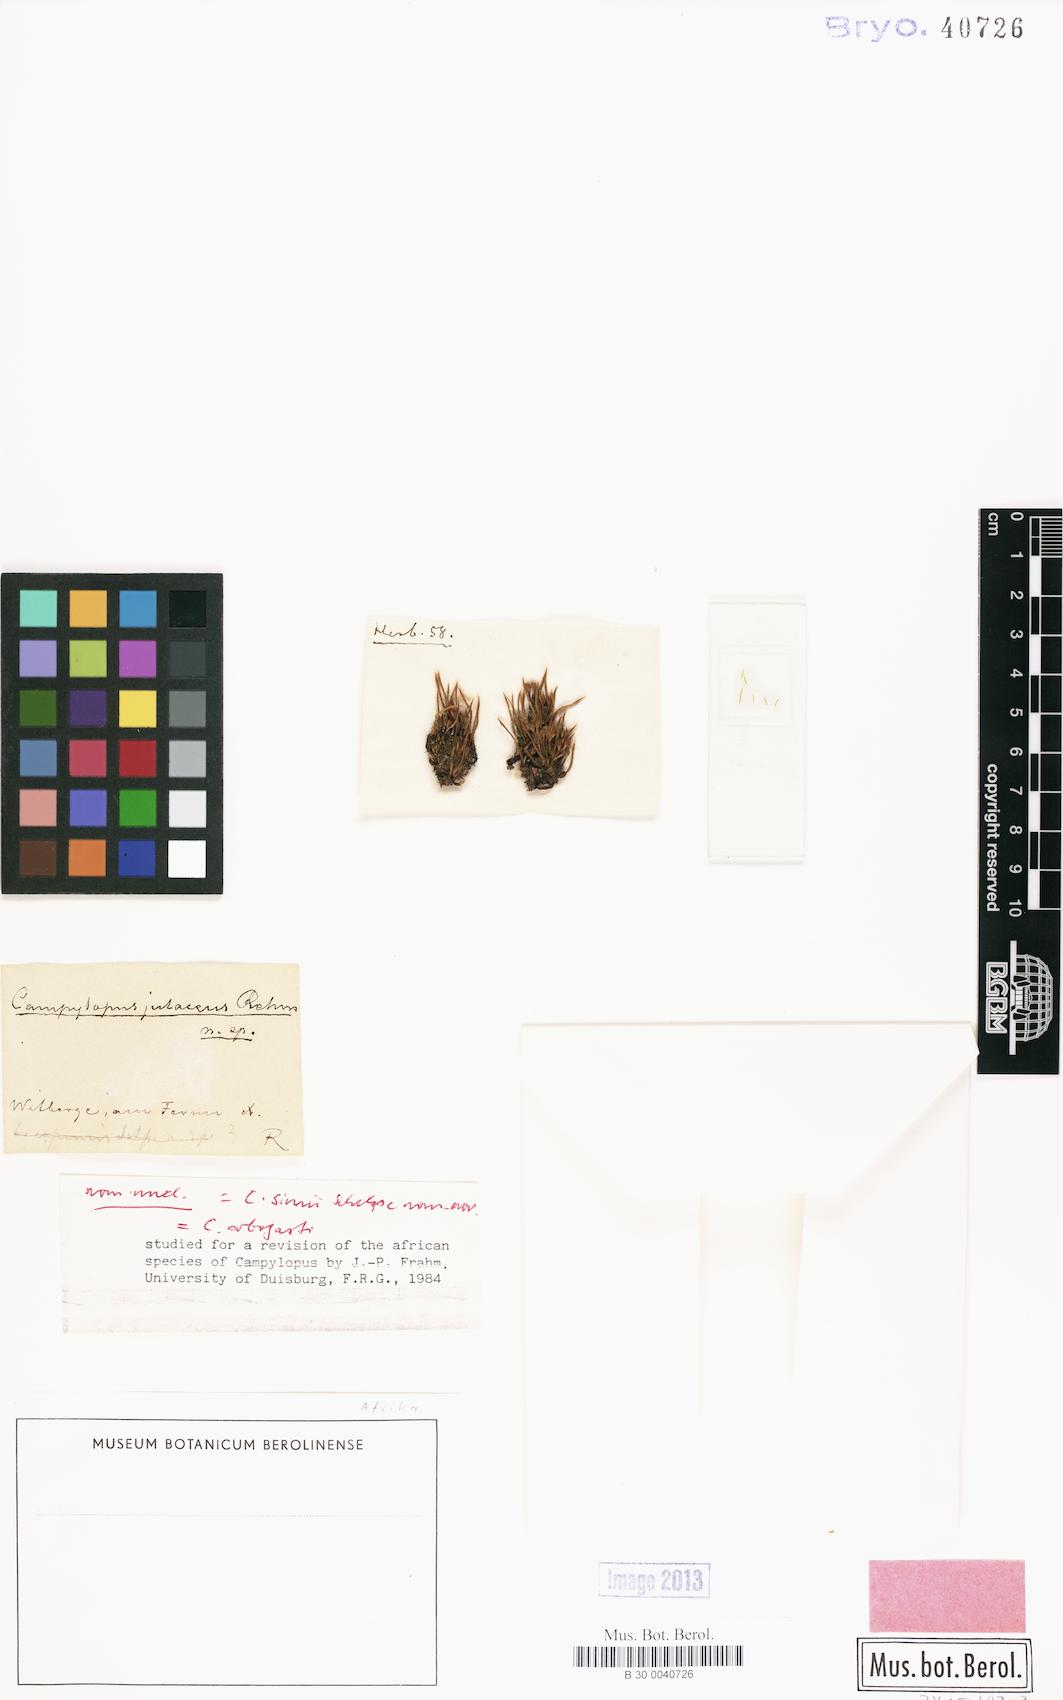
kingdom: Plantae
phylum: Bryophyta
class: Bryopsida
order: Dicranales
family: Leucobryaceae
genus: Campylopus
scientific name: Campylopus julaceus
